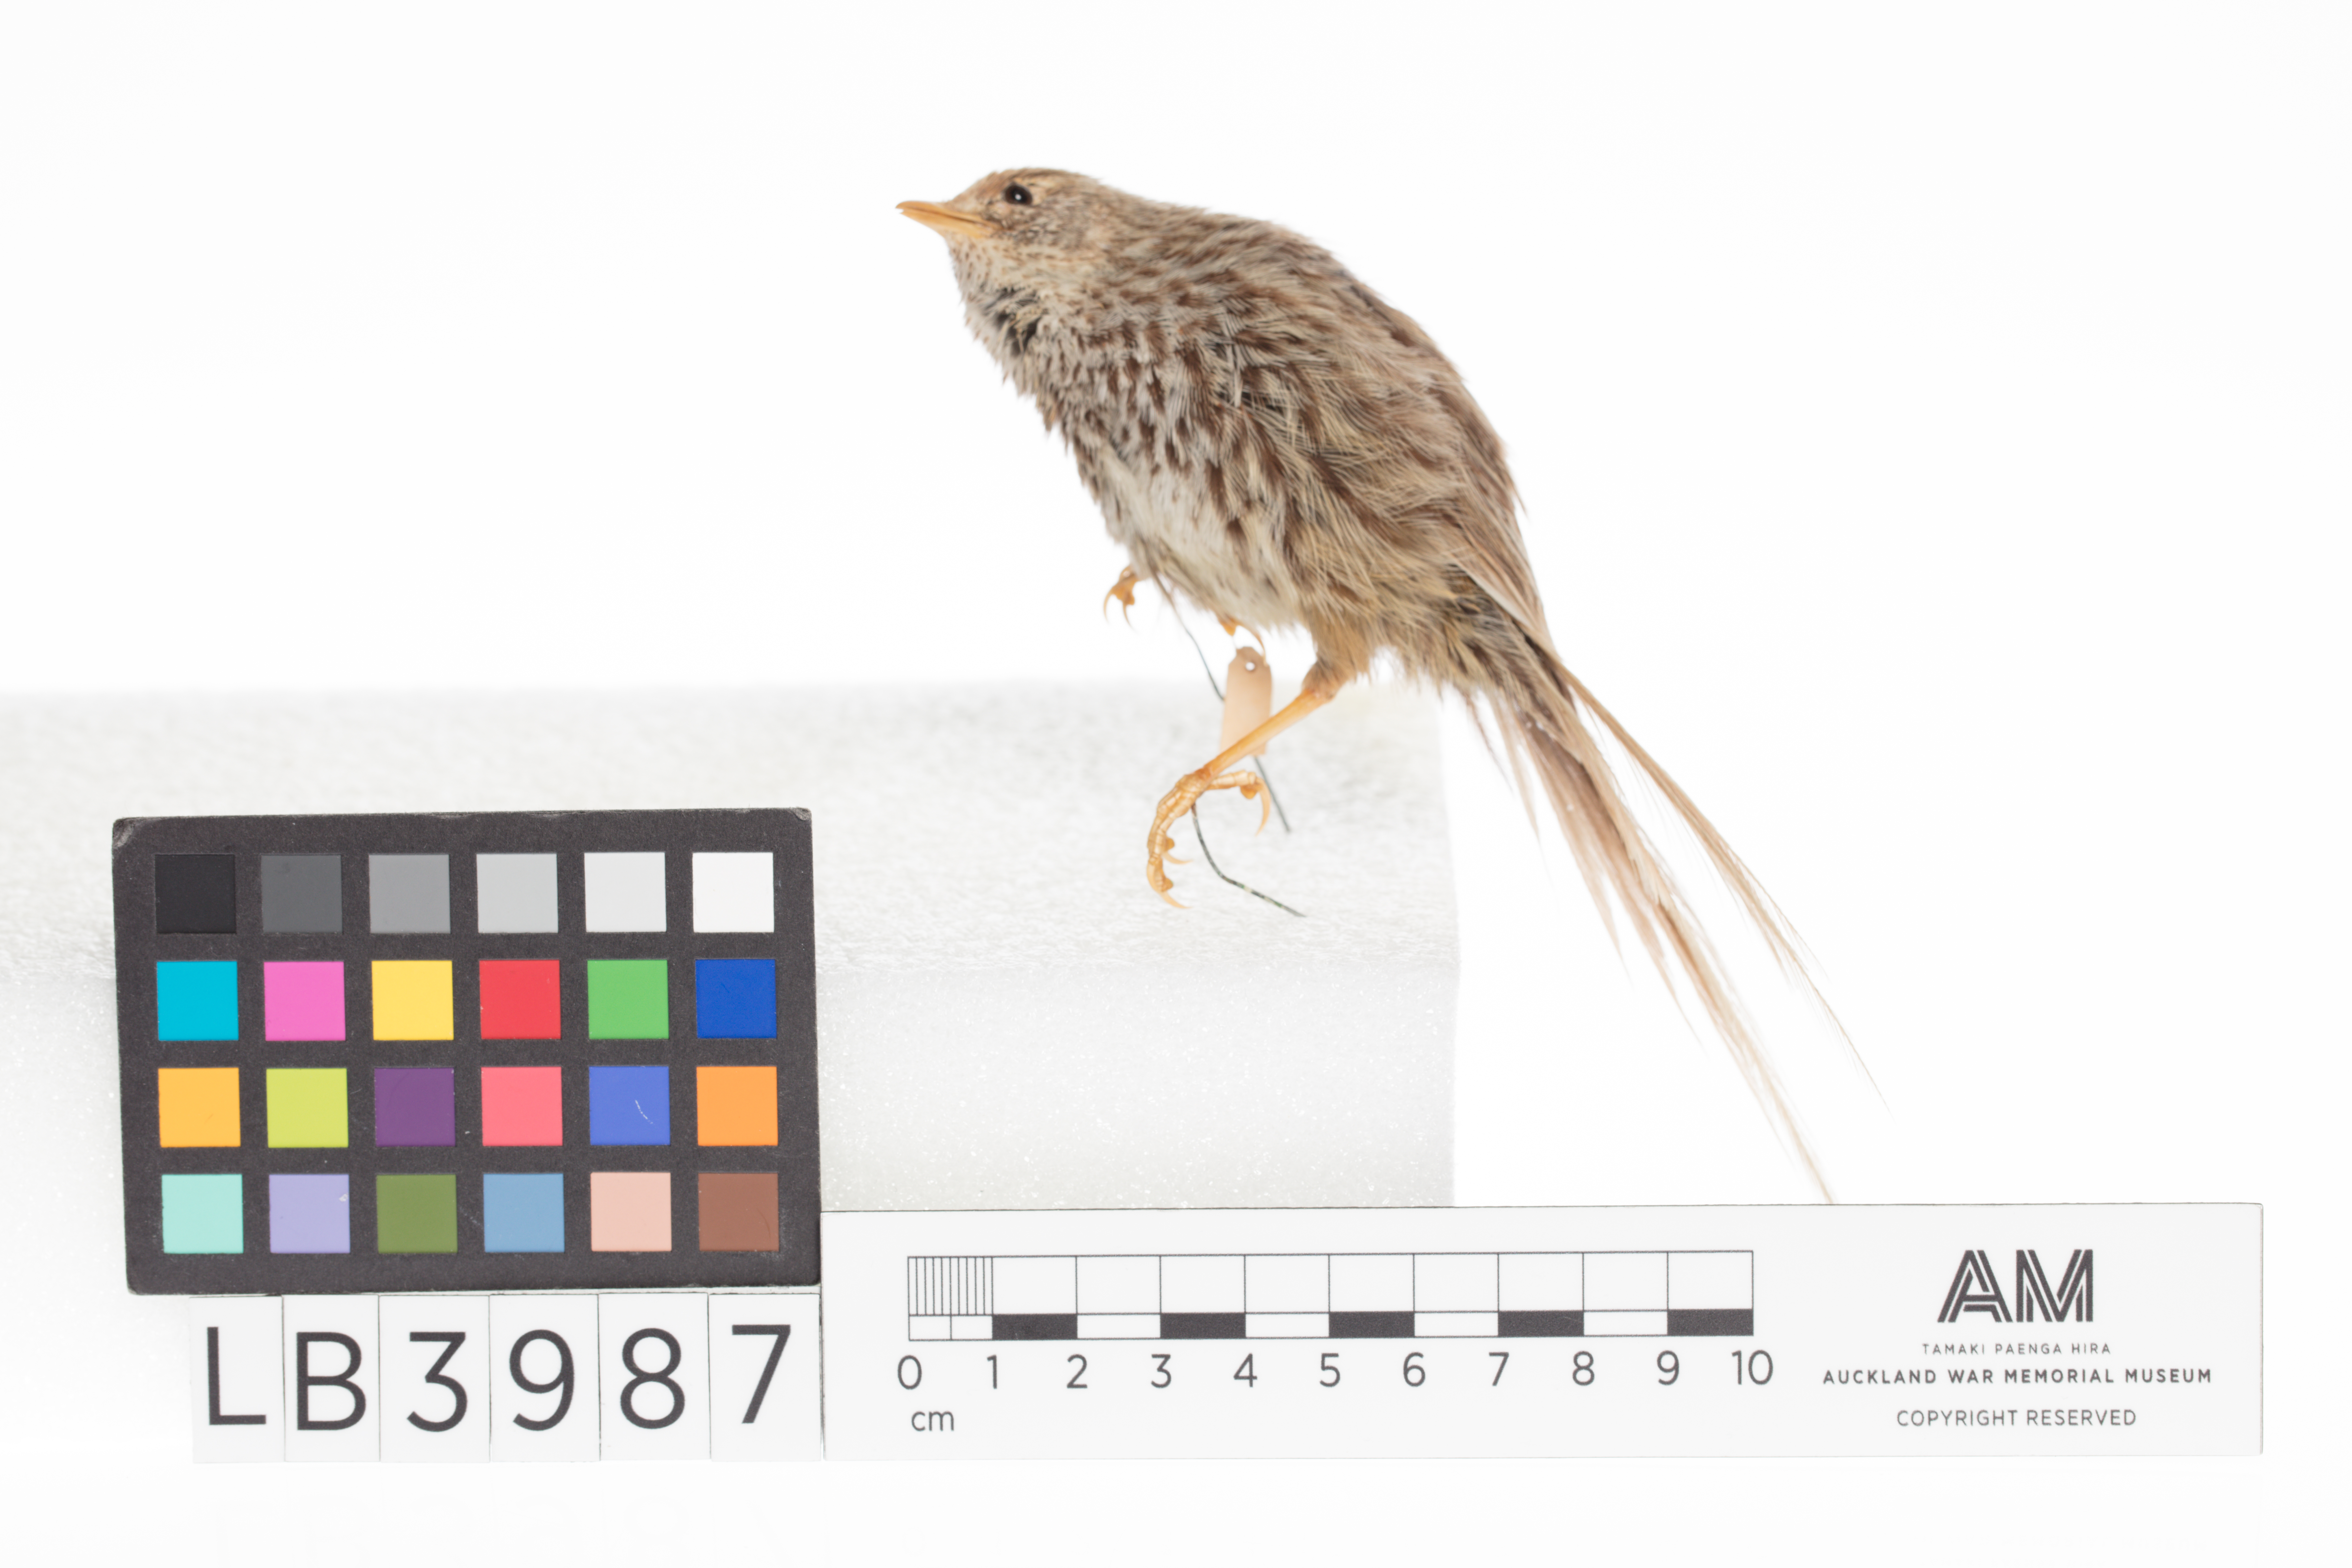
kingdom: Animalia
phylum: Chordata
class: Aves
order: Passeriformes
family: Locustellidae
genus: Megalurus
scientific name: Megalurus punctatus
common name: New zealand fernbird
